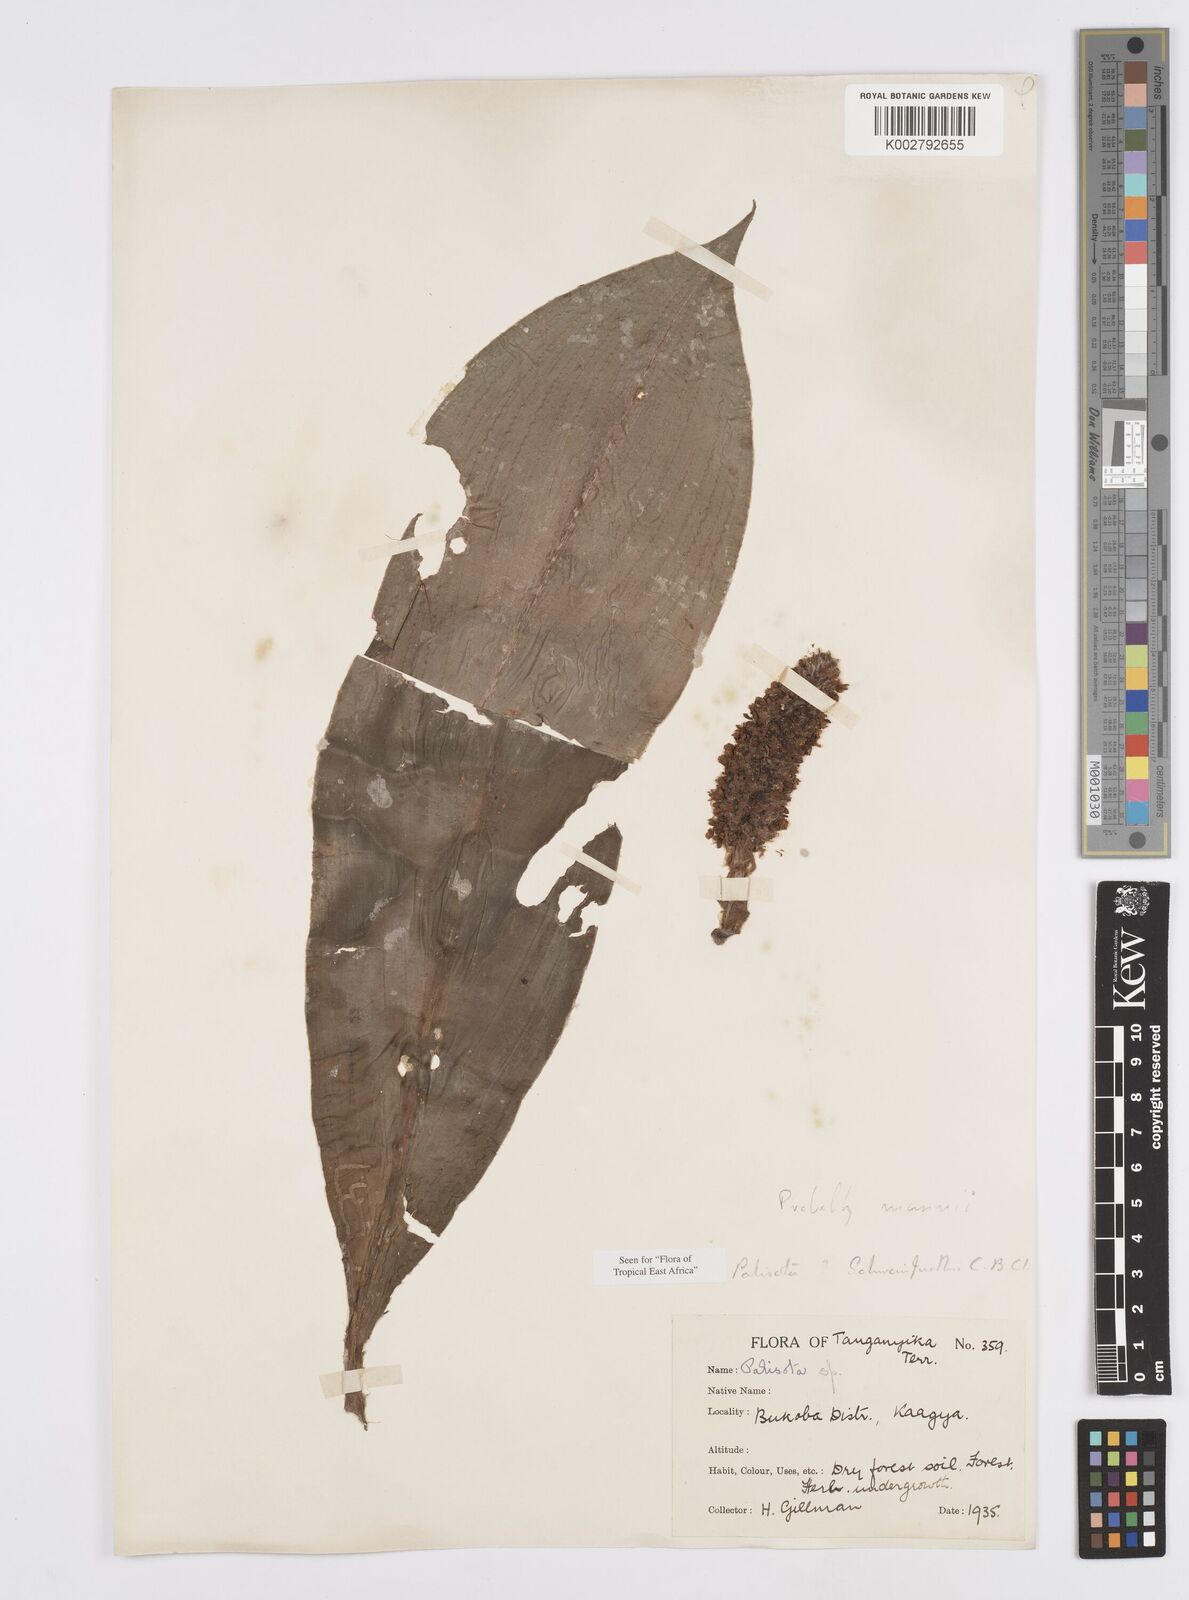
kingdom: Plantae
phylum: Tracheophyta
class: Liliopsida
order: Commelinales
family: Commelinaceae
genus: Palisota
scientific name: Palisota schweinfurthii
